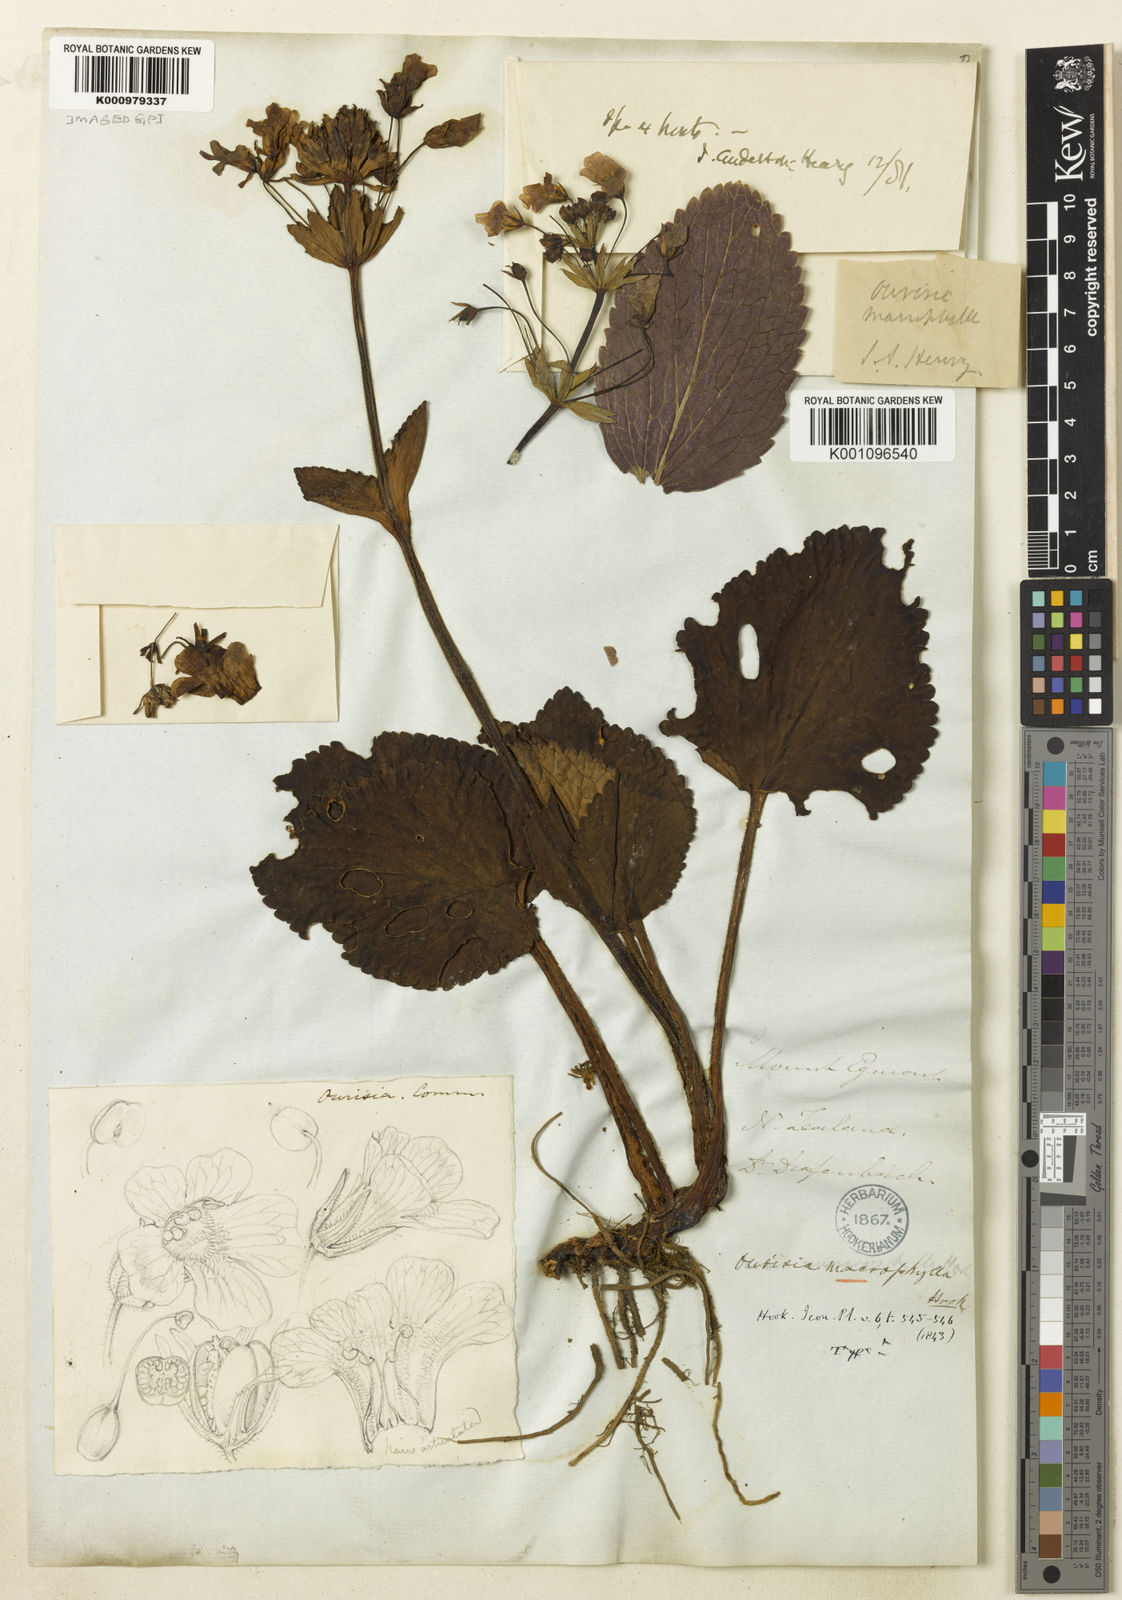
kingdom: Plantae
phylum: Tracheophyta
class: Magnoliopsida
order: Lamiales
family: Plantaginaceae
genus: Ourisia
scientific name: Ourisia macrophylla
